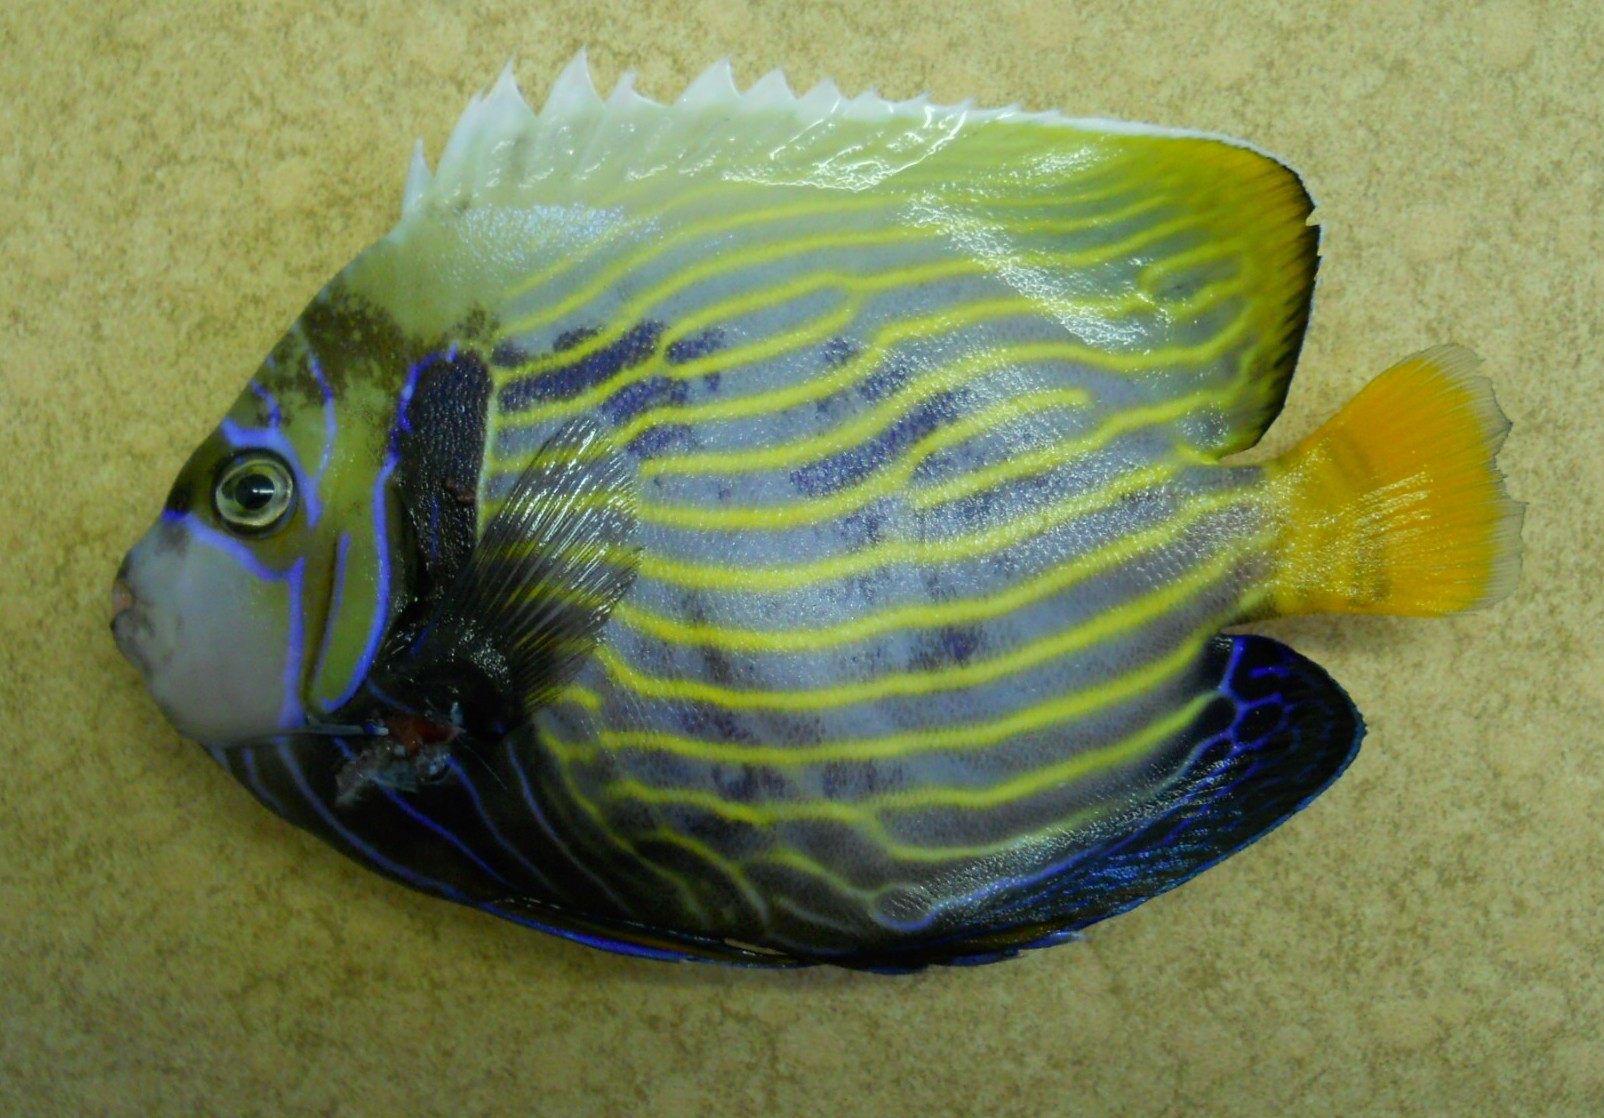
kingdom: Animalia
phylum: Chordata
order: Perciformes
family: Pomacanthidae
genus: Pomacanthus
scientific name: Pomacanthus imperator
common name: Emperor angelfish
